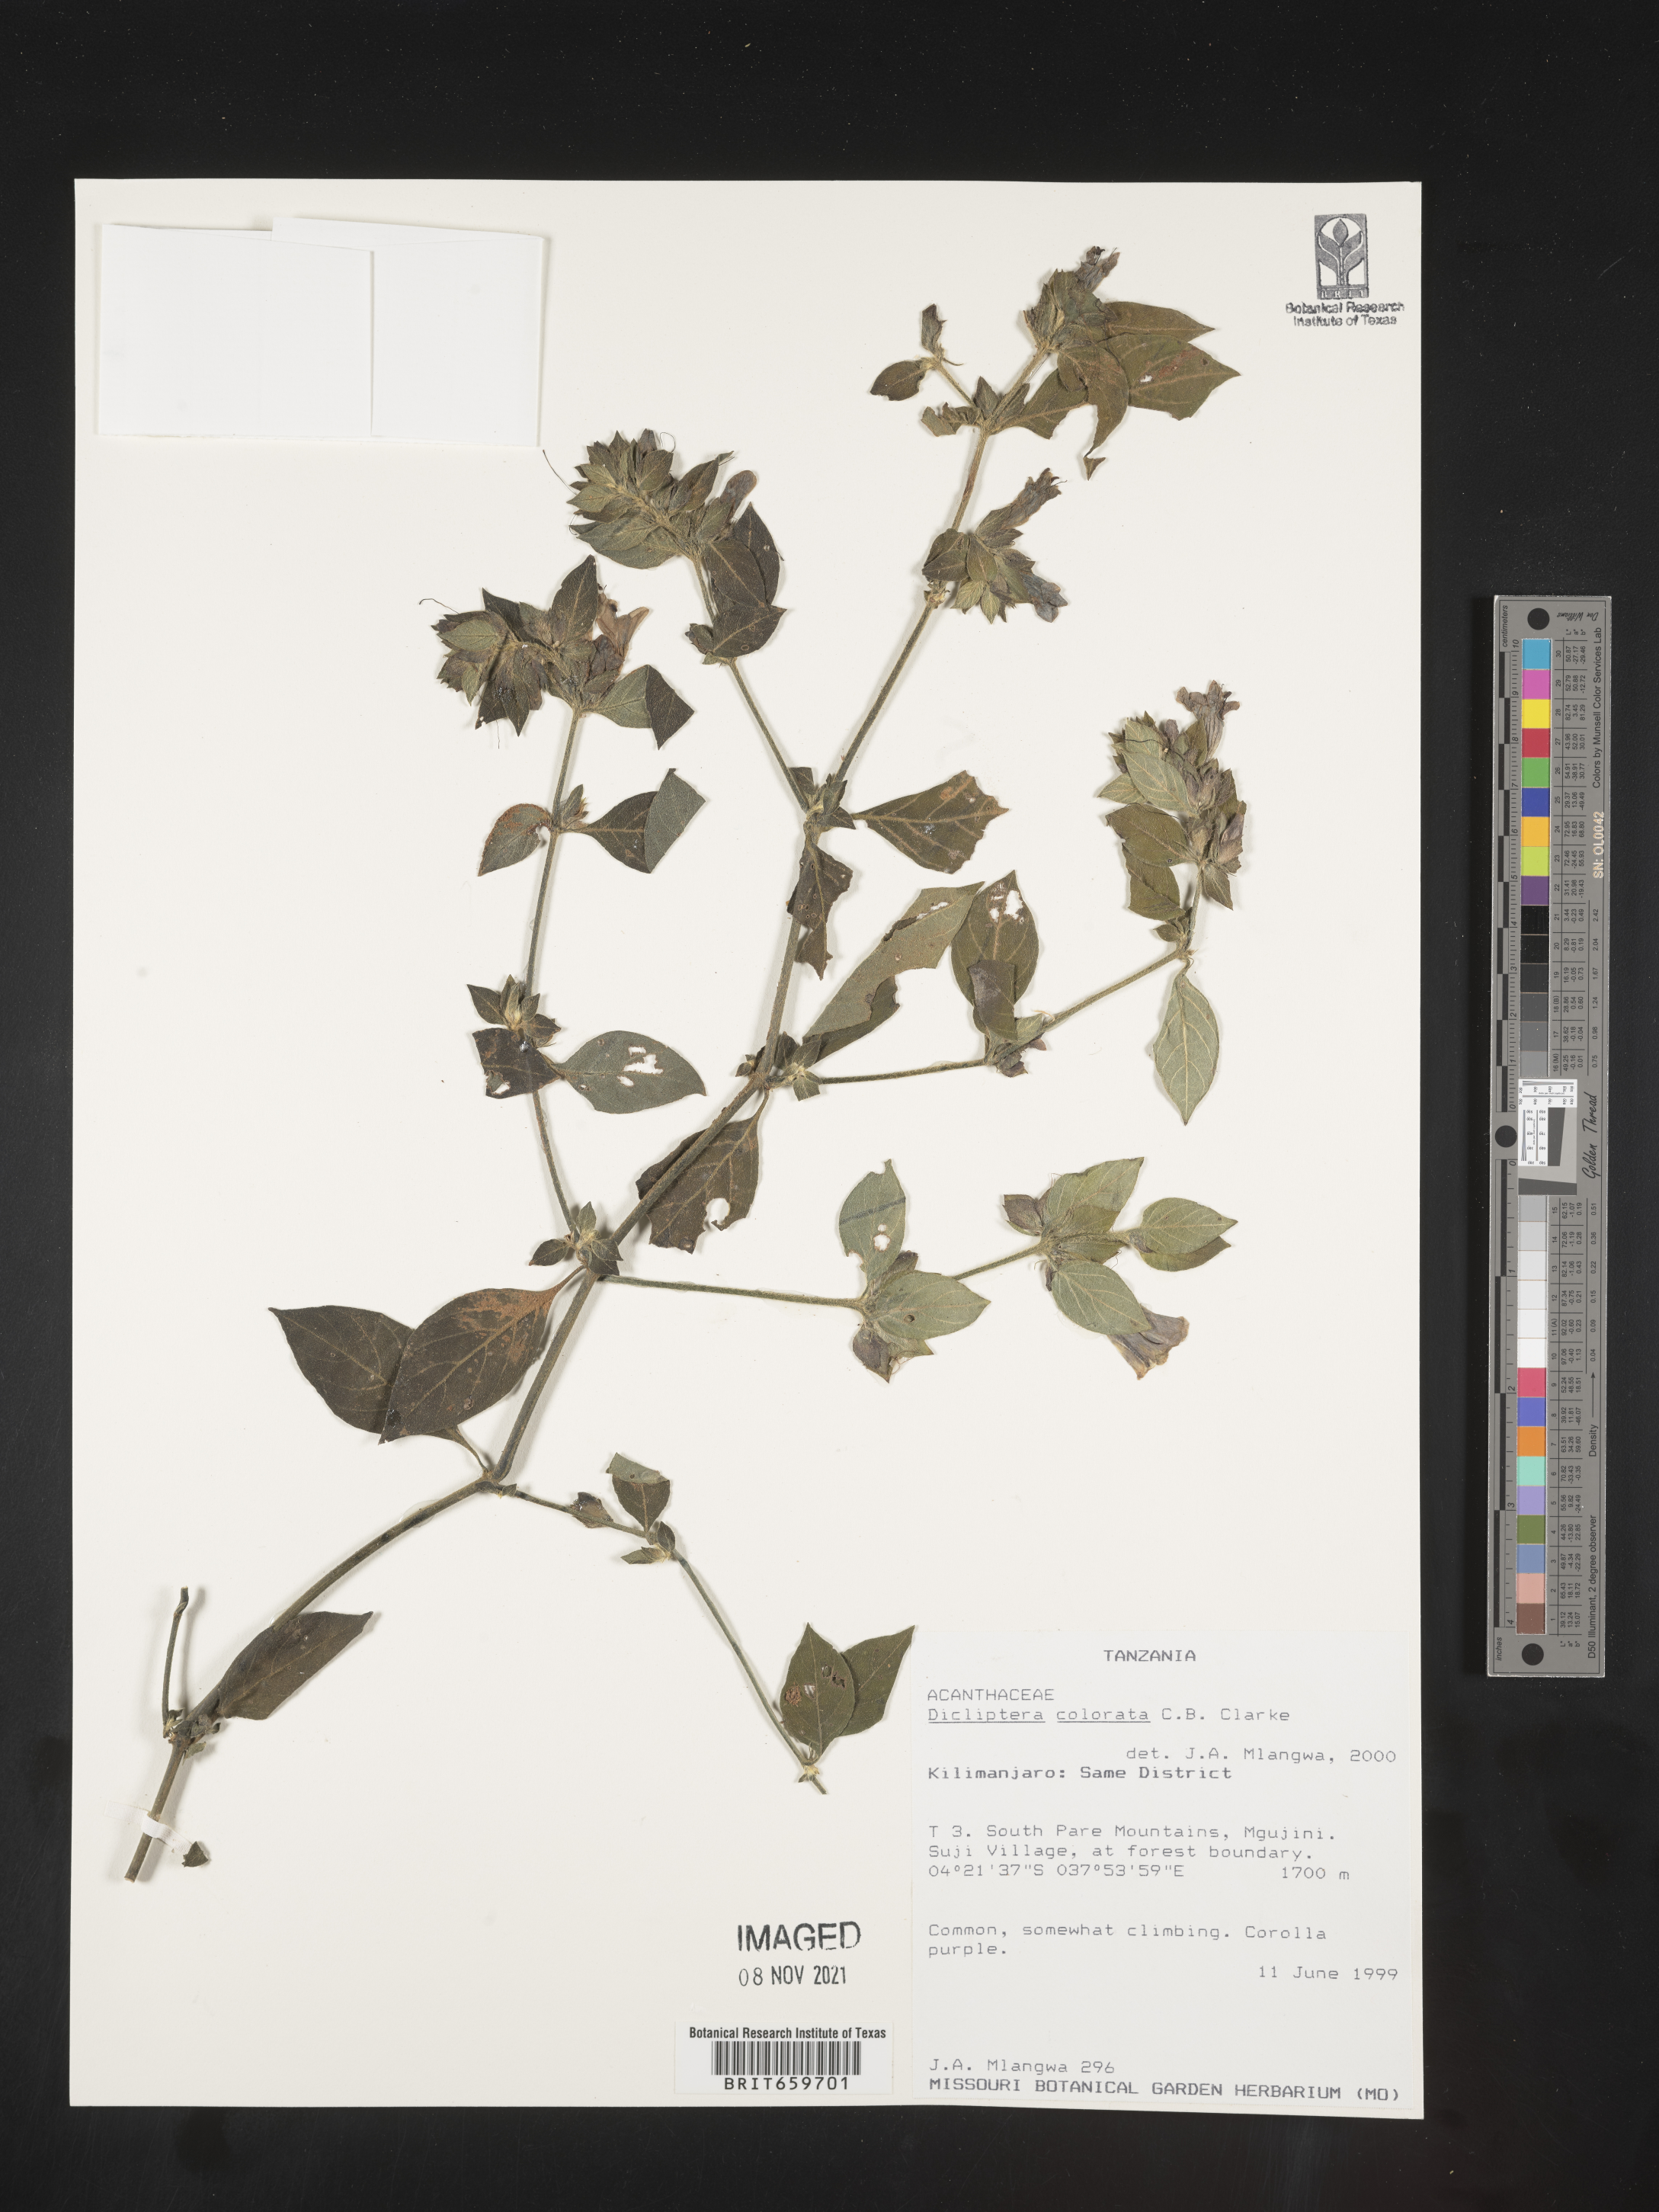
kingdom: Plantae
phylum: Tracheophyta
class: Magnoliopsida
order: Lamiales
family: Acanthaceae
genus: Dicliptera
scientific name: Dicliptera colorata
